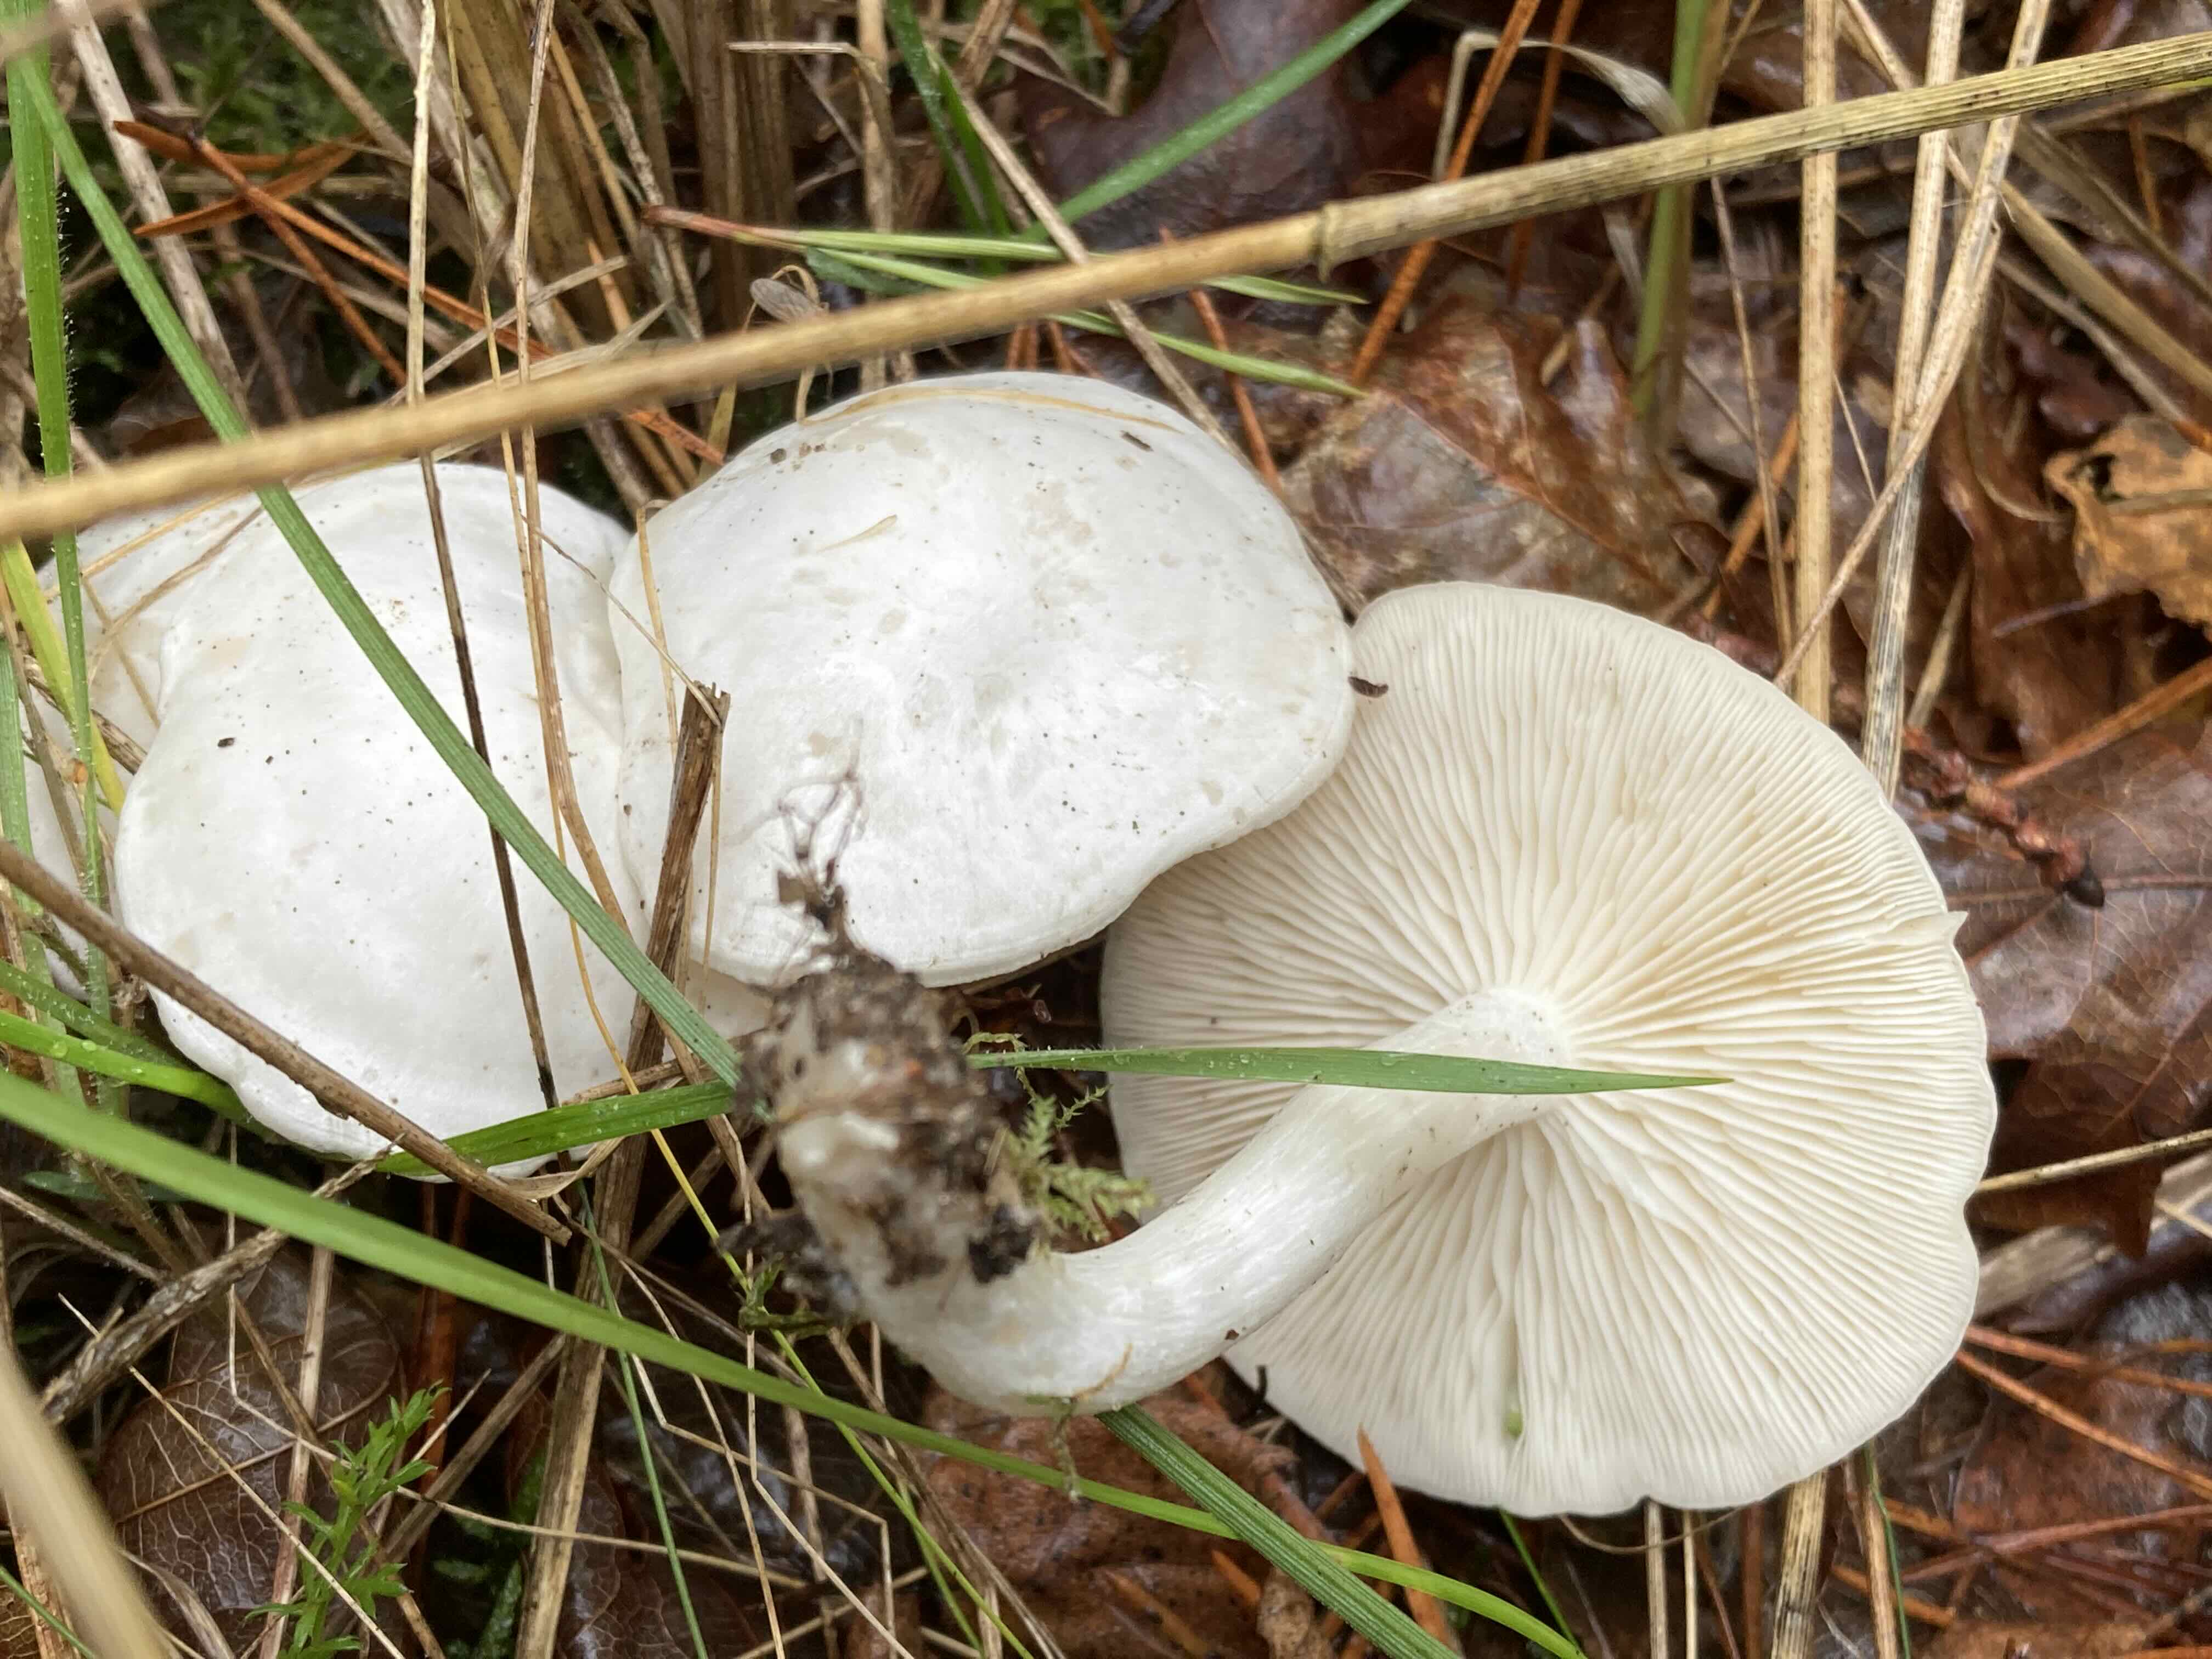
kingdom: Fungi
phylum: Basidiomycota
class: Agaricomycetes
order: Agaricales
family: Tricholomataceae
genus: Leucocybe
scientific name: Leucocybe connata
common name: knippe-tragthat
